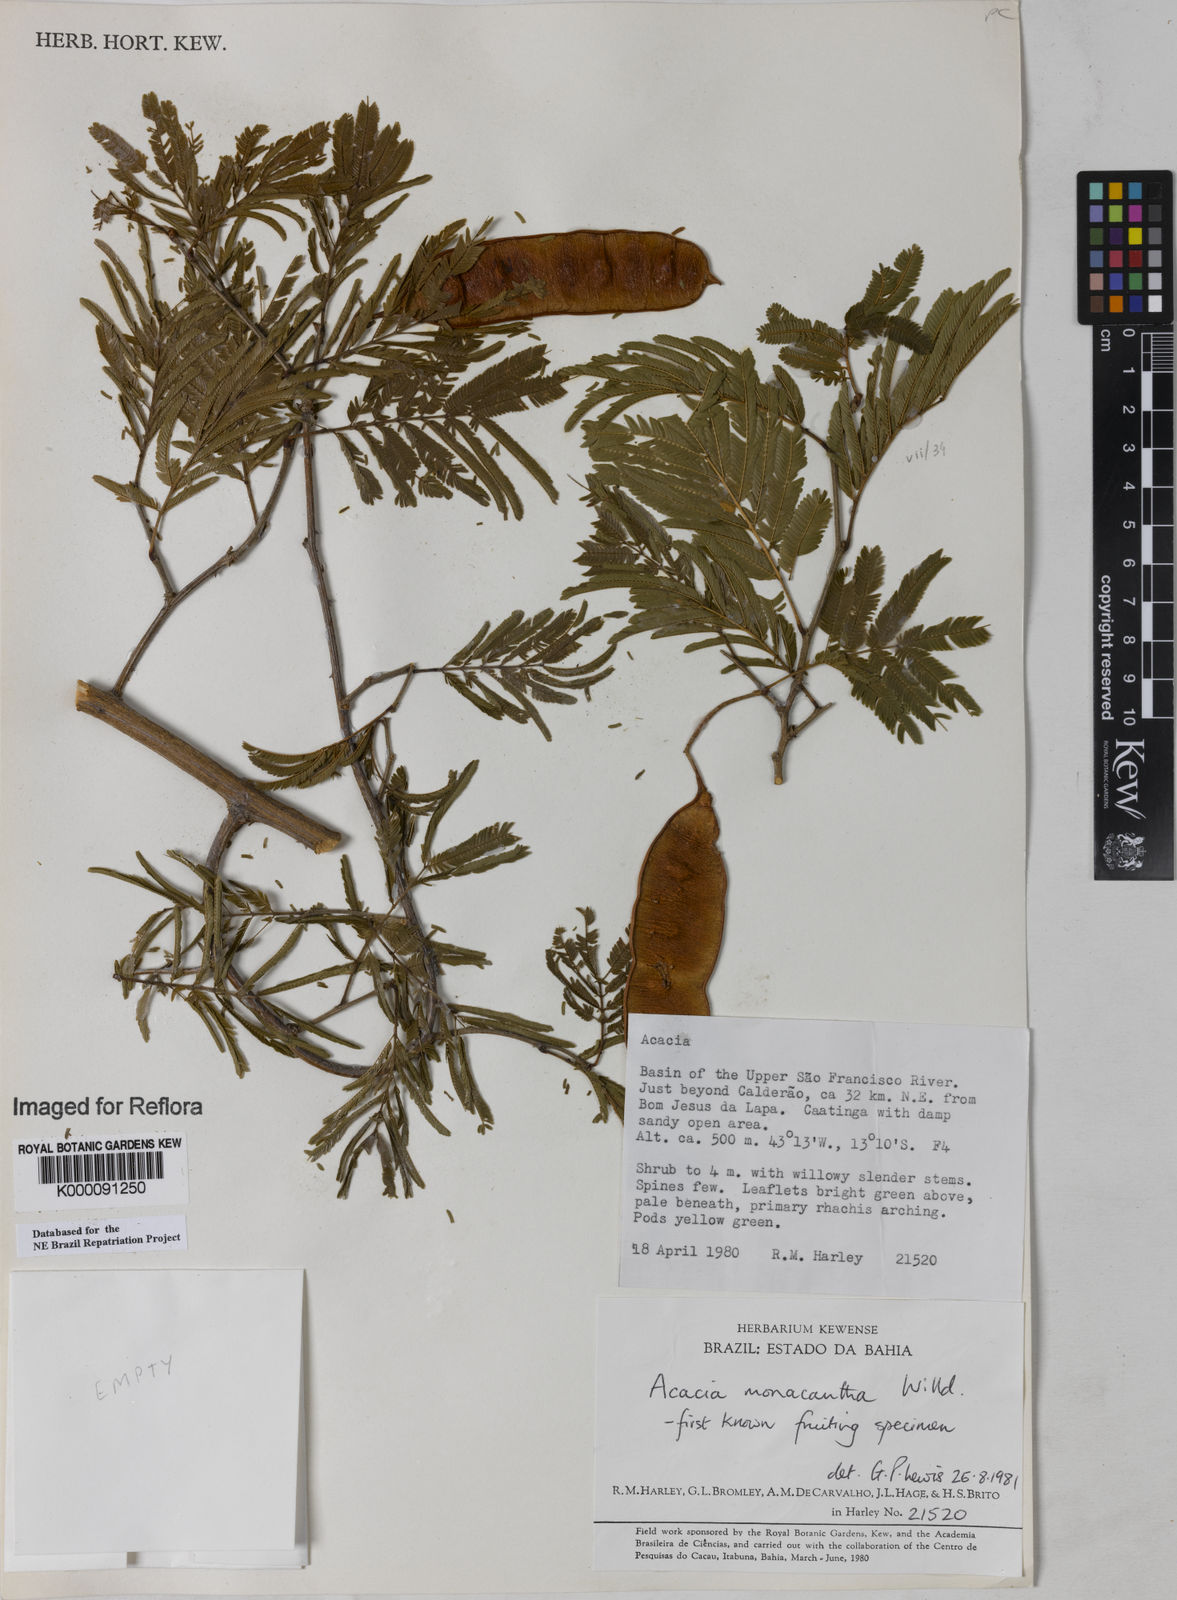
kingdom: Plantae
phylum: Tracheophyta
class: Magnoliopsida
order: Fabales
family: Fabaceae
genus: Senegalia
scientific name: Senegalia monacantha
